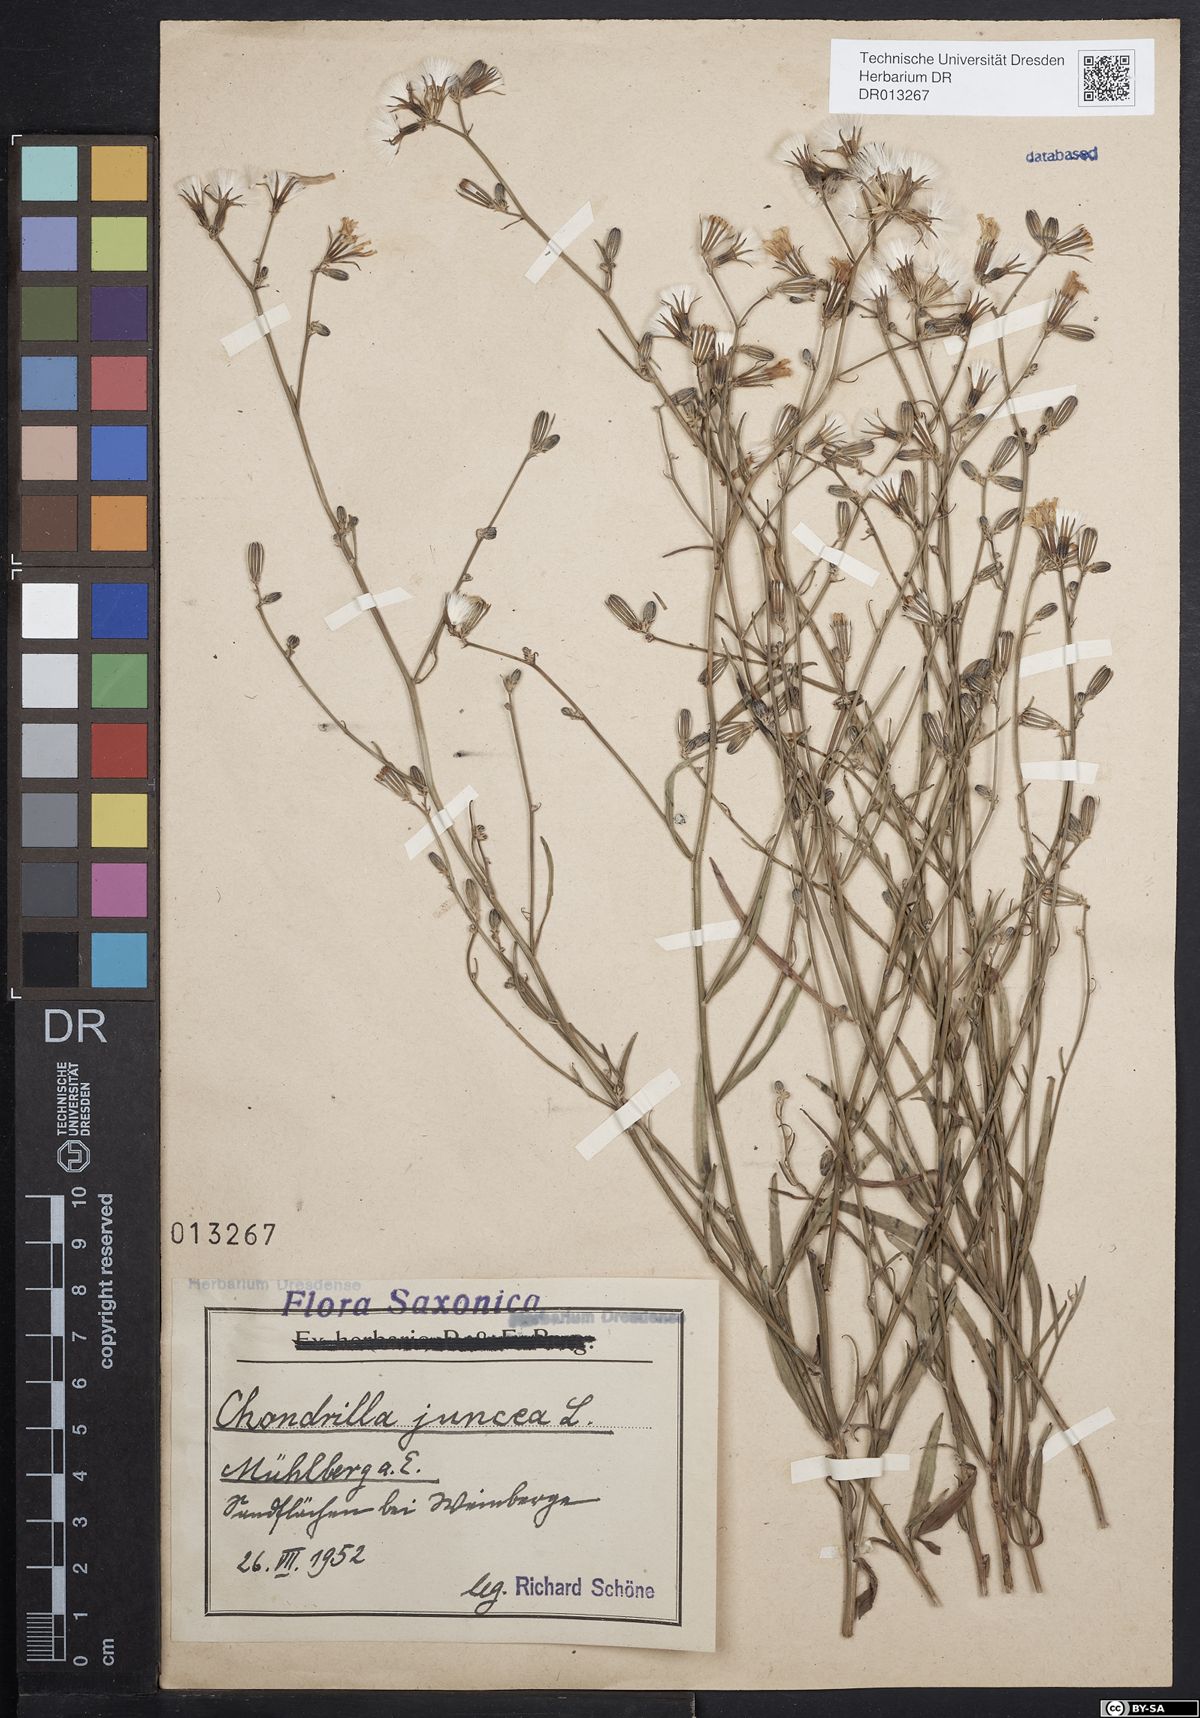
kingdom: Plantae
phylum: Tracheophyta
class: Magnoliopsida
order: Asterales
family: Asteraceae
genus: Chondrilla
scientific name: Chondrilla juncea
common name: Skeleton weed
